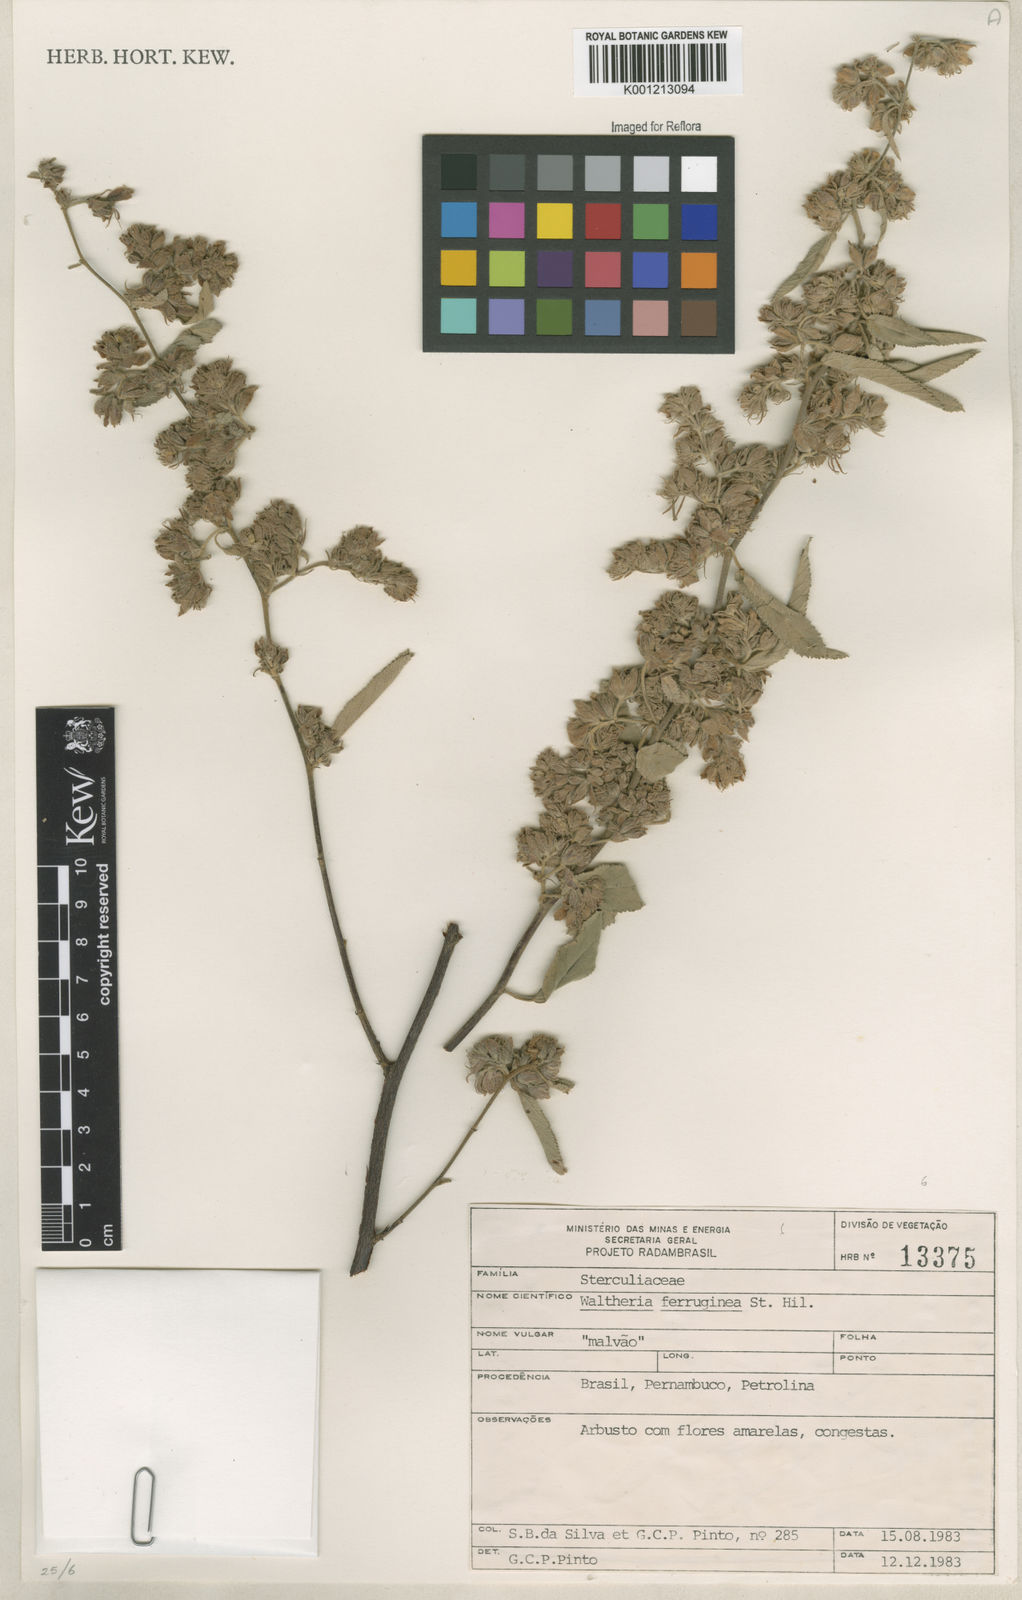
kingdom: Plantae
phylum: Tracheophyta
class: Magnoliopsida
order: Malvales
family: Malvaceae
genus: Waltheria
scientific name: Waltheria ferruginea
